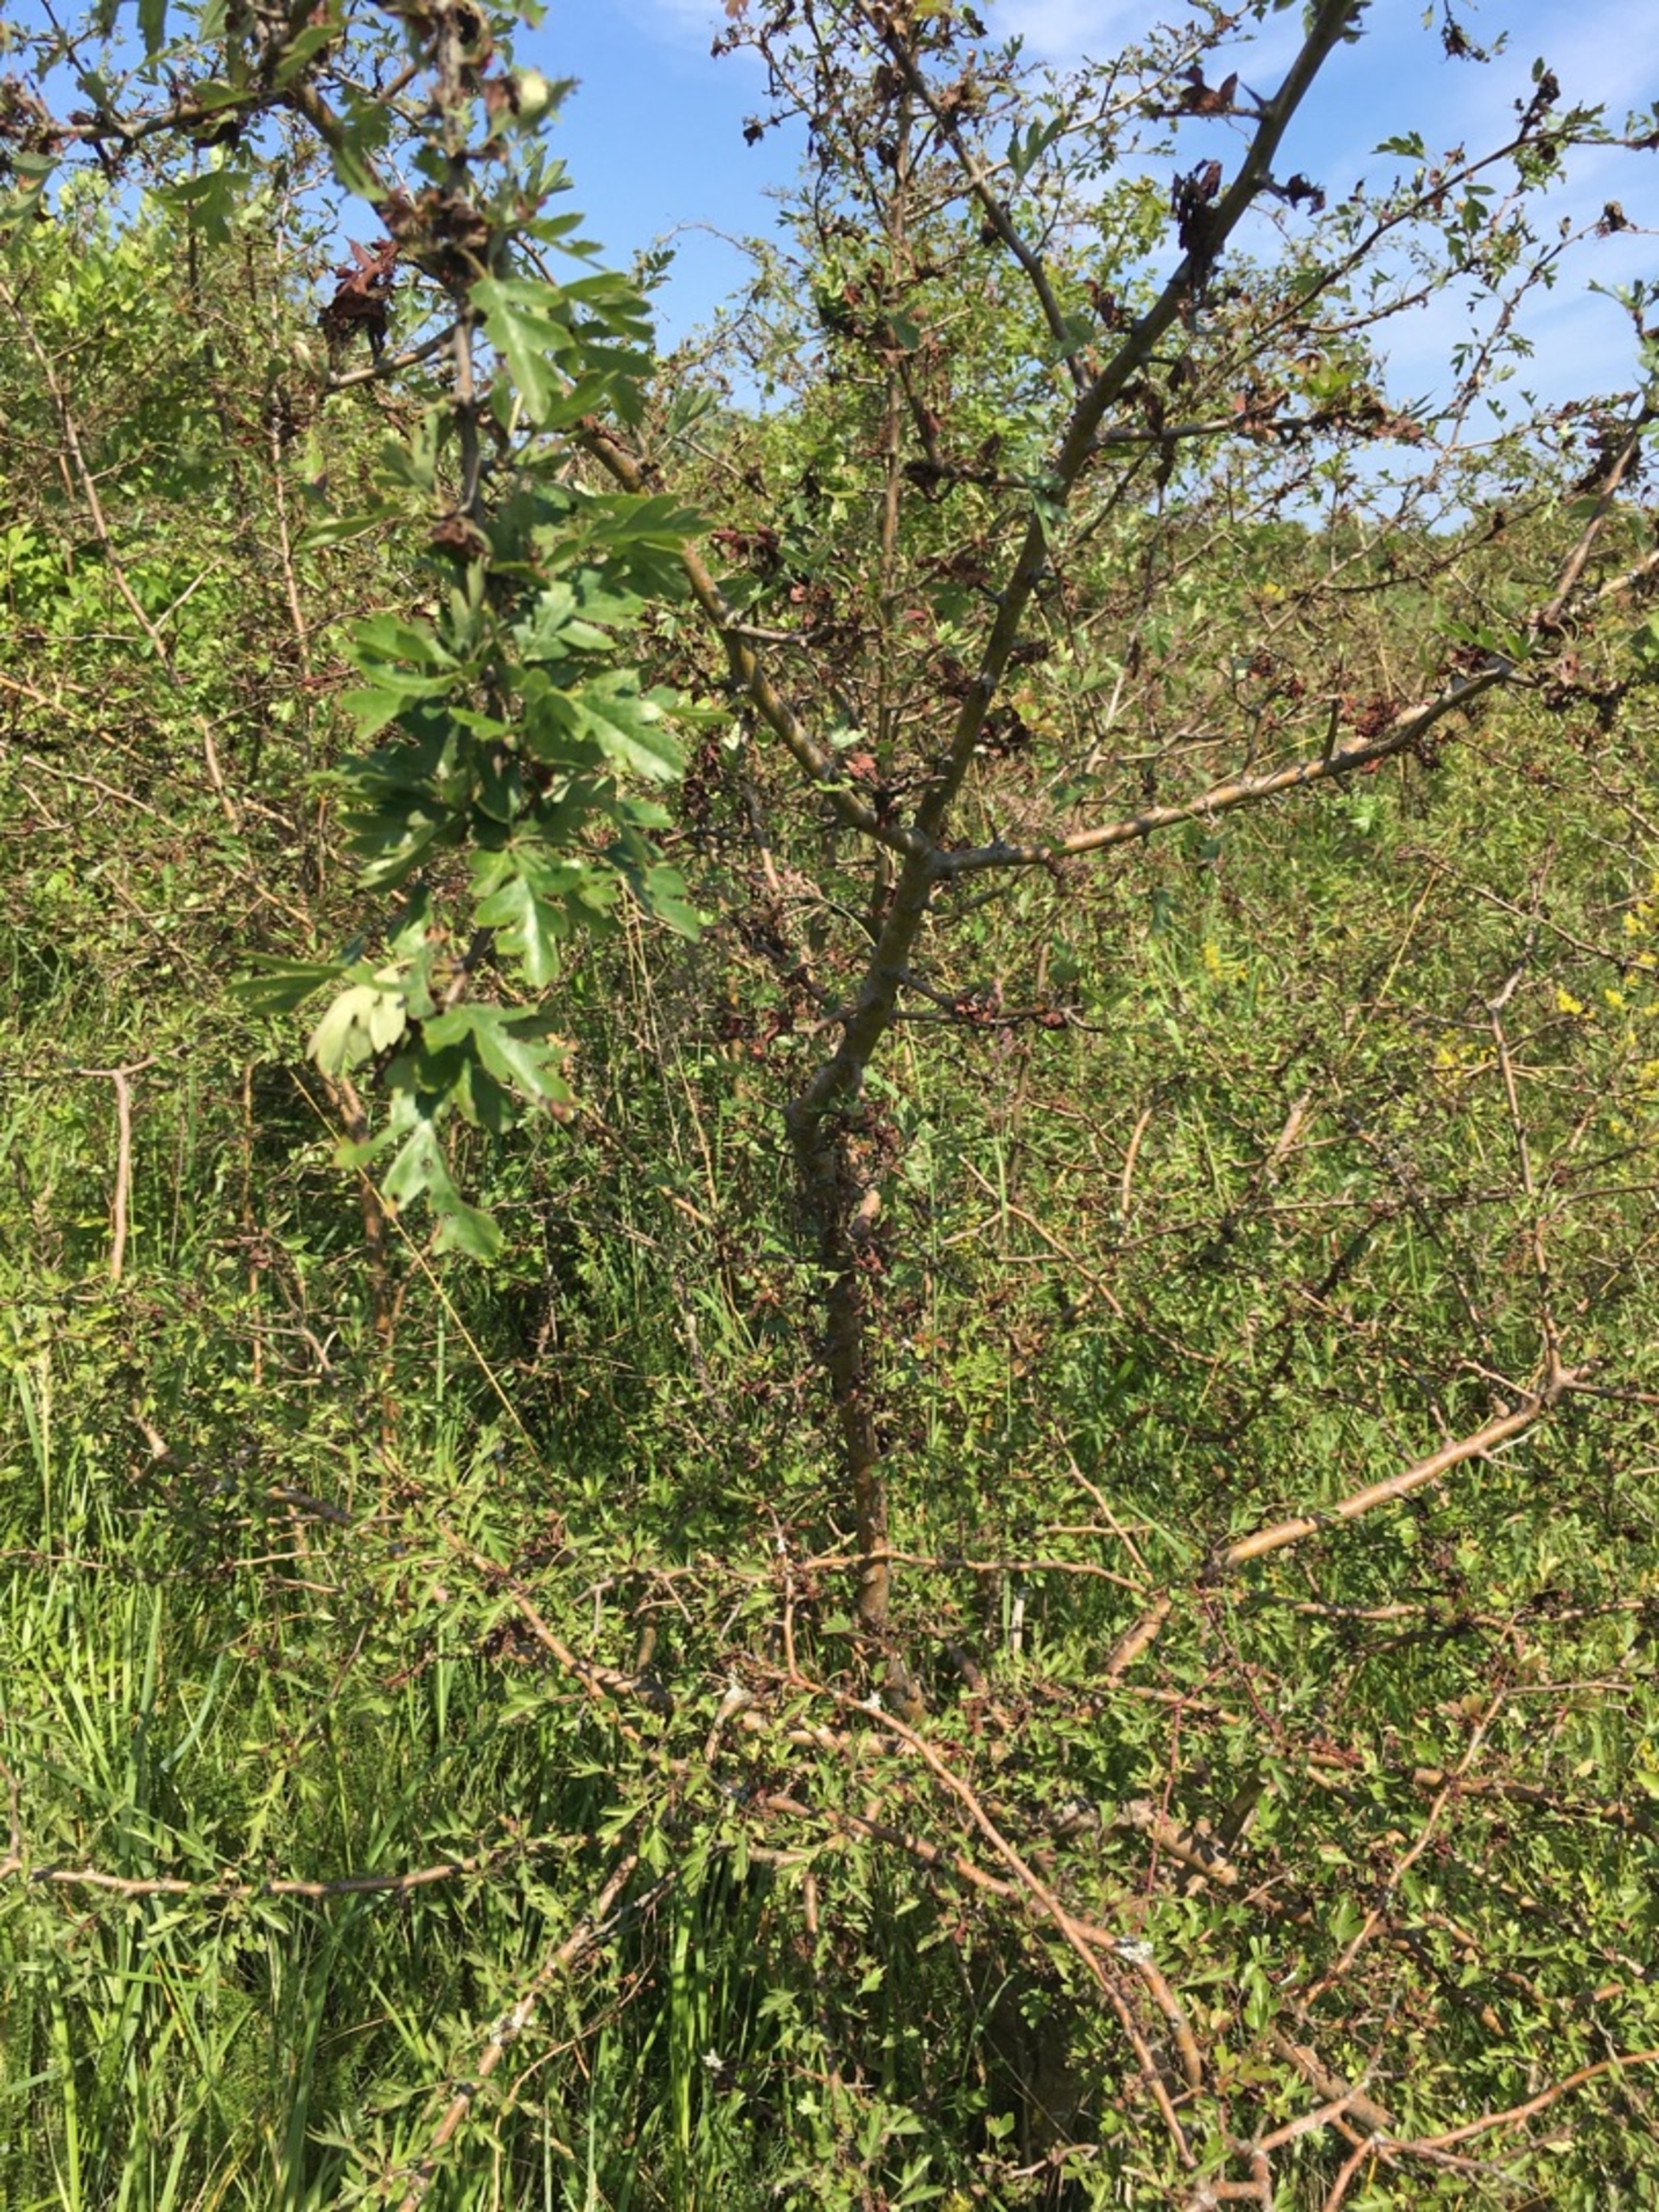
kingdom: Plantae
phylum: Tracheophyta
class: Magnoliopsida
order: Rosales
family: Rosaceae
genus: Crataegus
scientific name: Crataegus monogyna
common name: Engriflet hvidtjørn
